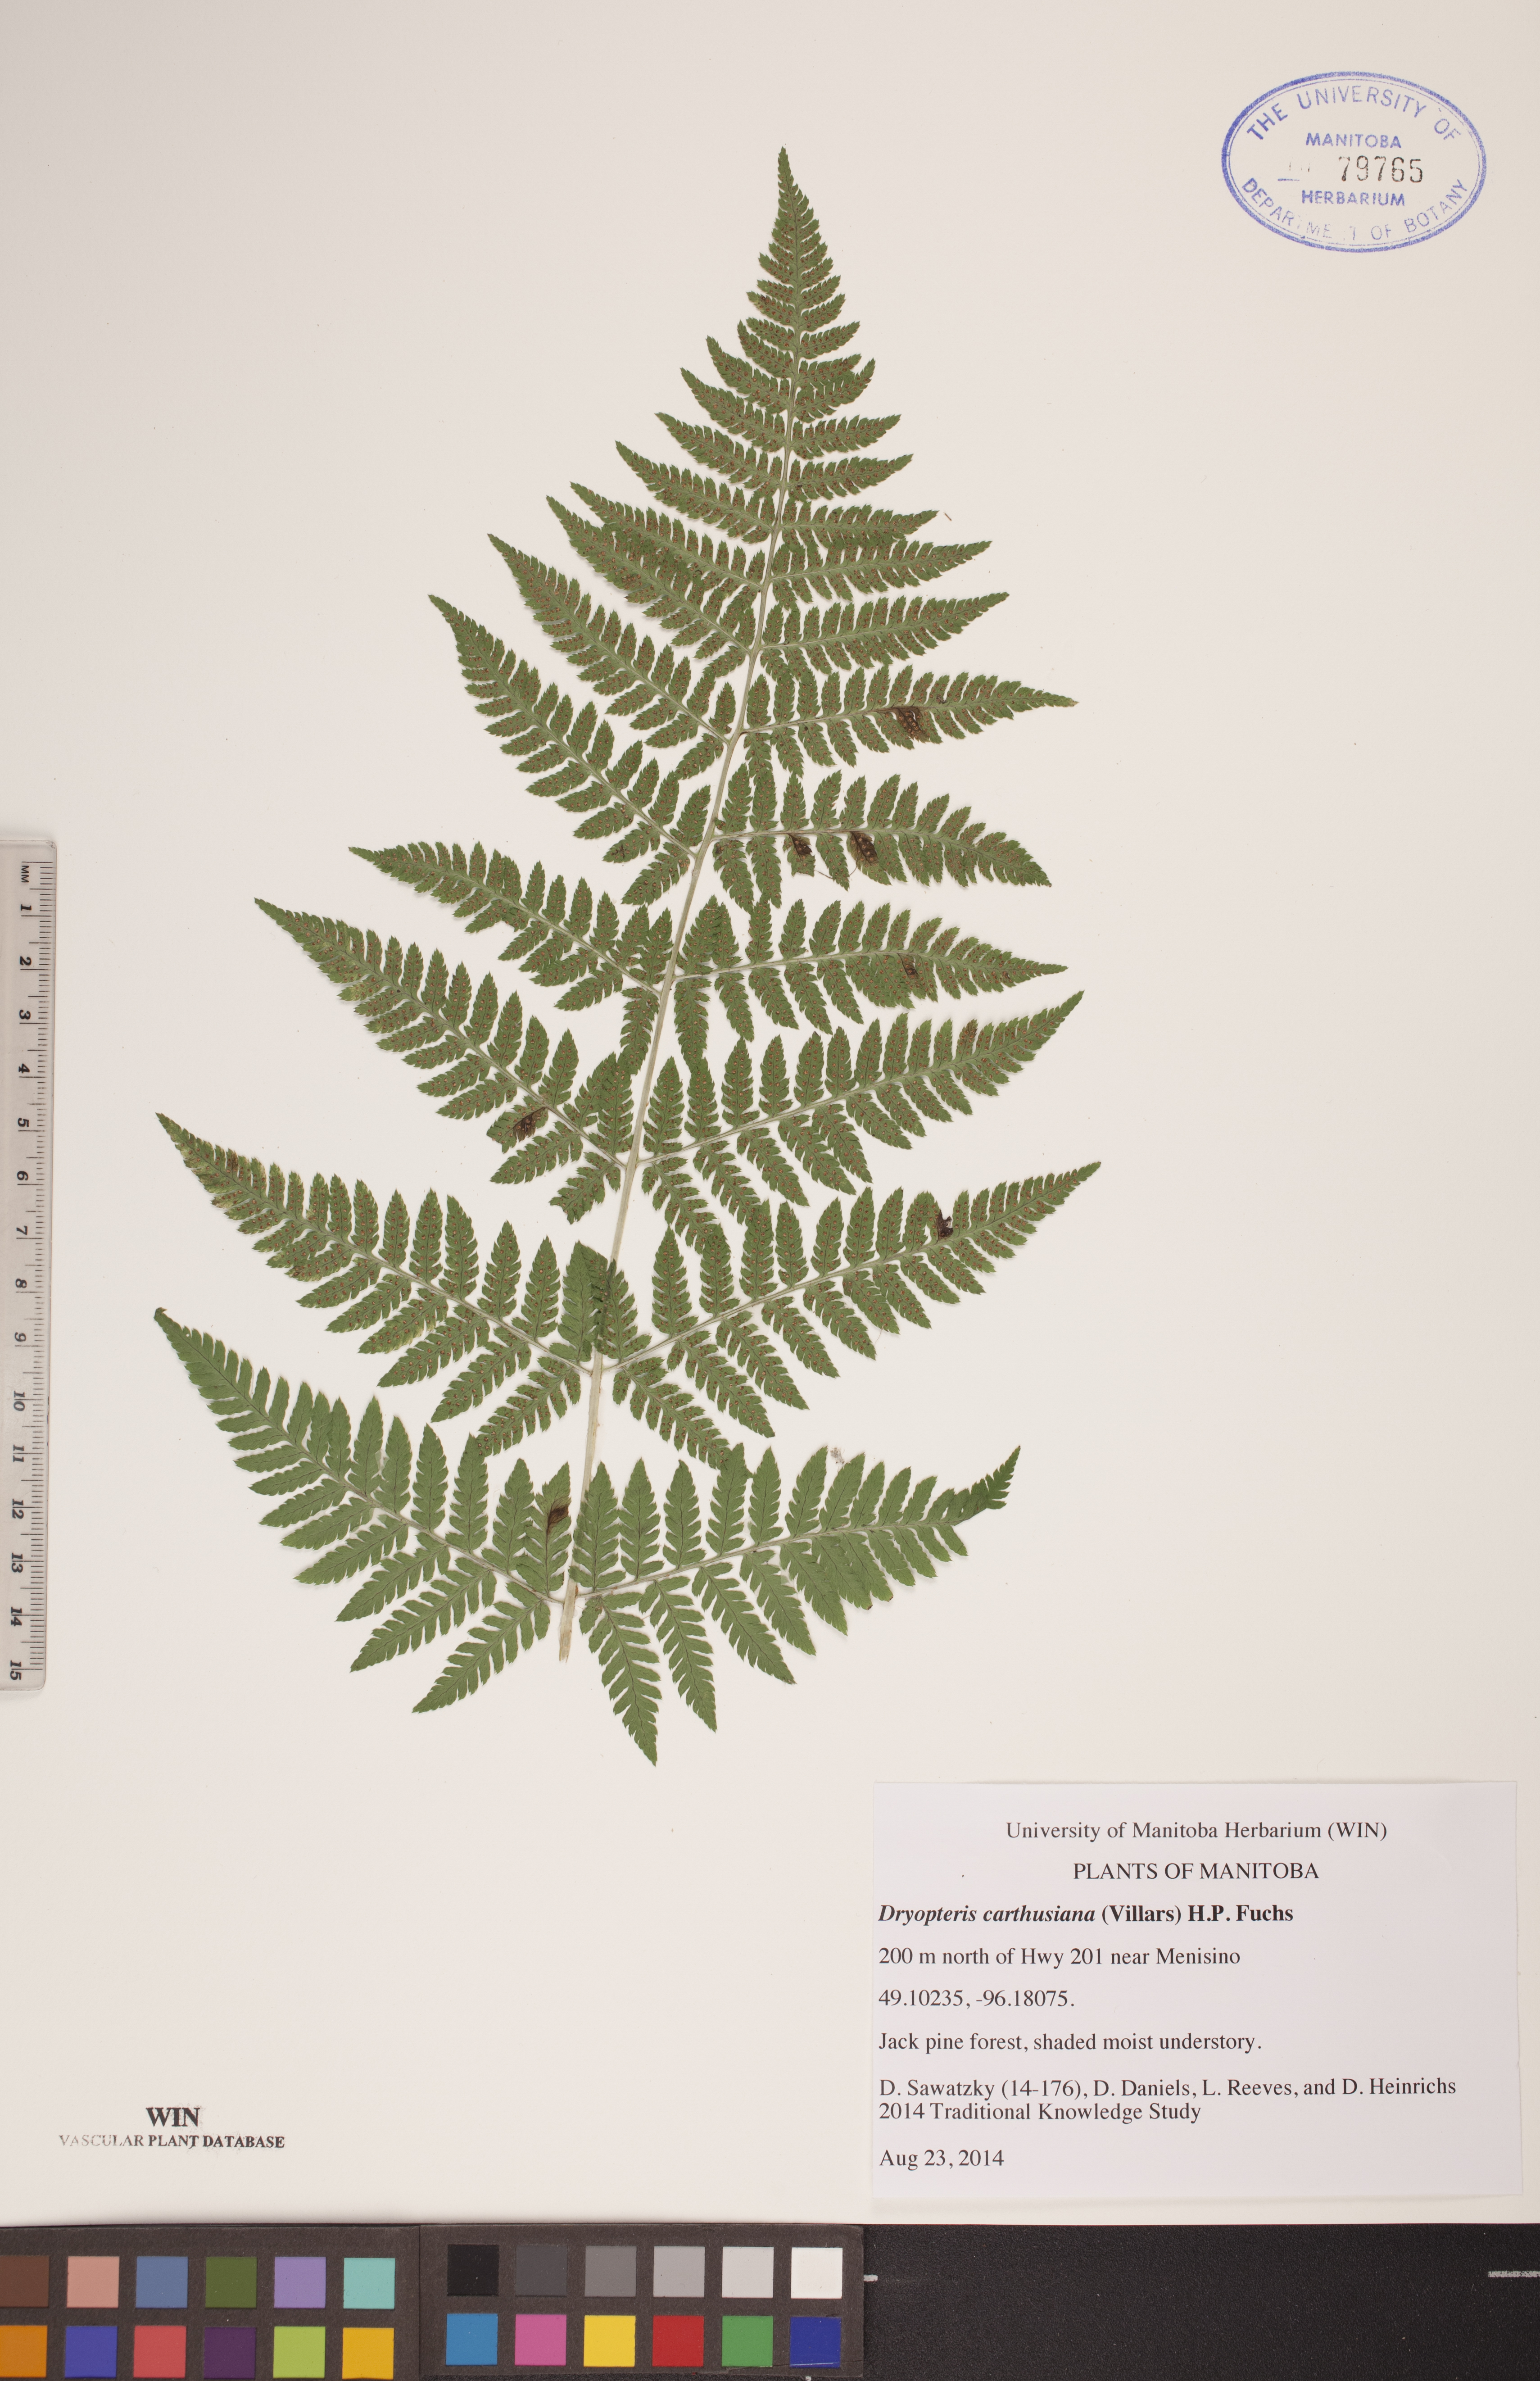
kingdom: Plantae
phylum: Tracheophyta
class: Polypodiopsida
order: Polypodiales
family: Dryopteridaceae
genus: Dryopteris
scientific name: Dryopteris carthusiana
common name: Narrow buckler-fern
